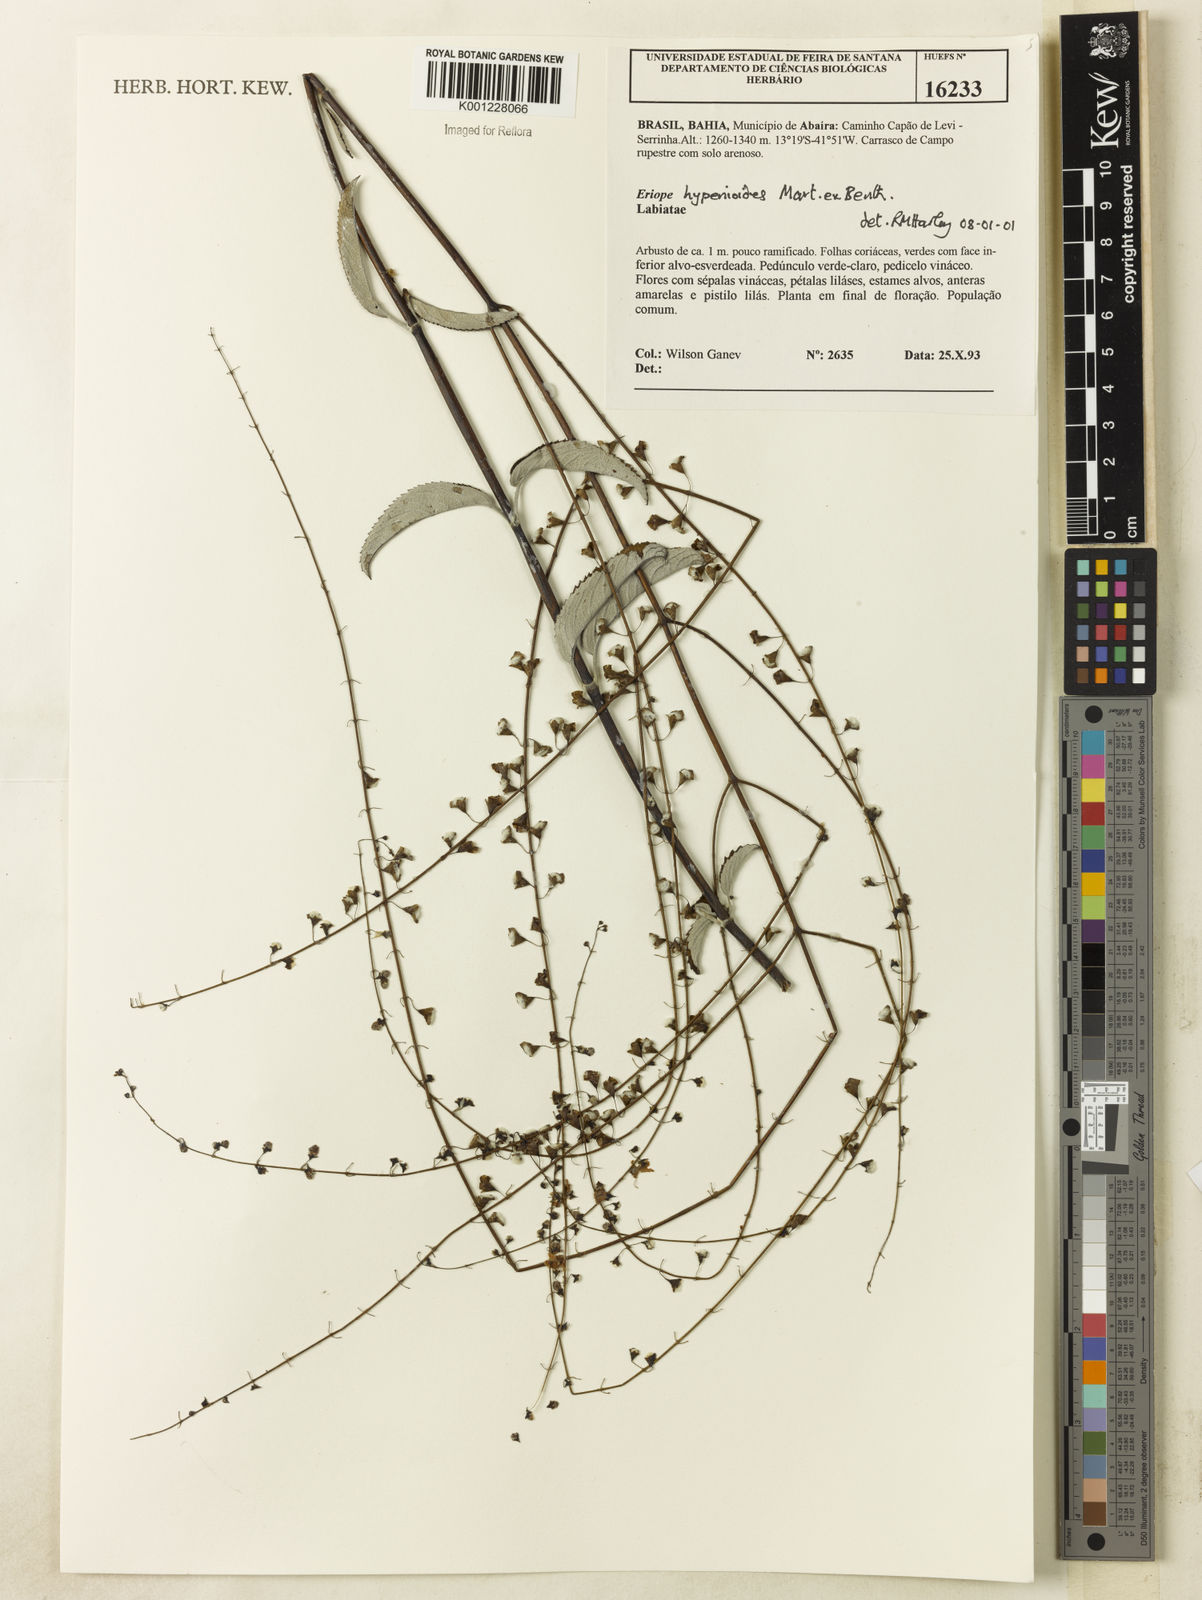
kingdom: Plantae
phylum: Tracheophyta
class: Magnoliopsida
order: Lamiales
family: Lamiaceae
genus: Eriope
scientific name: Eriope hypenioides
